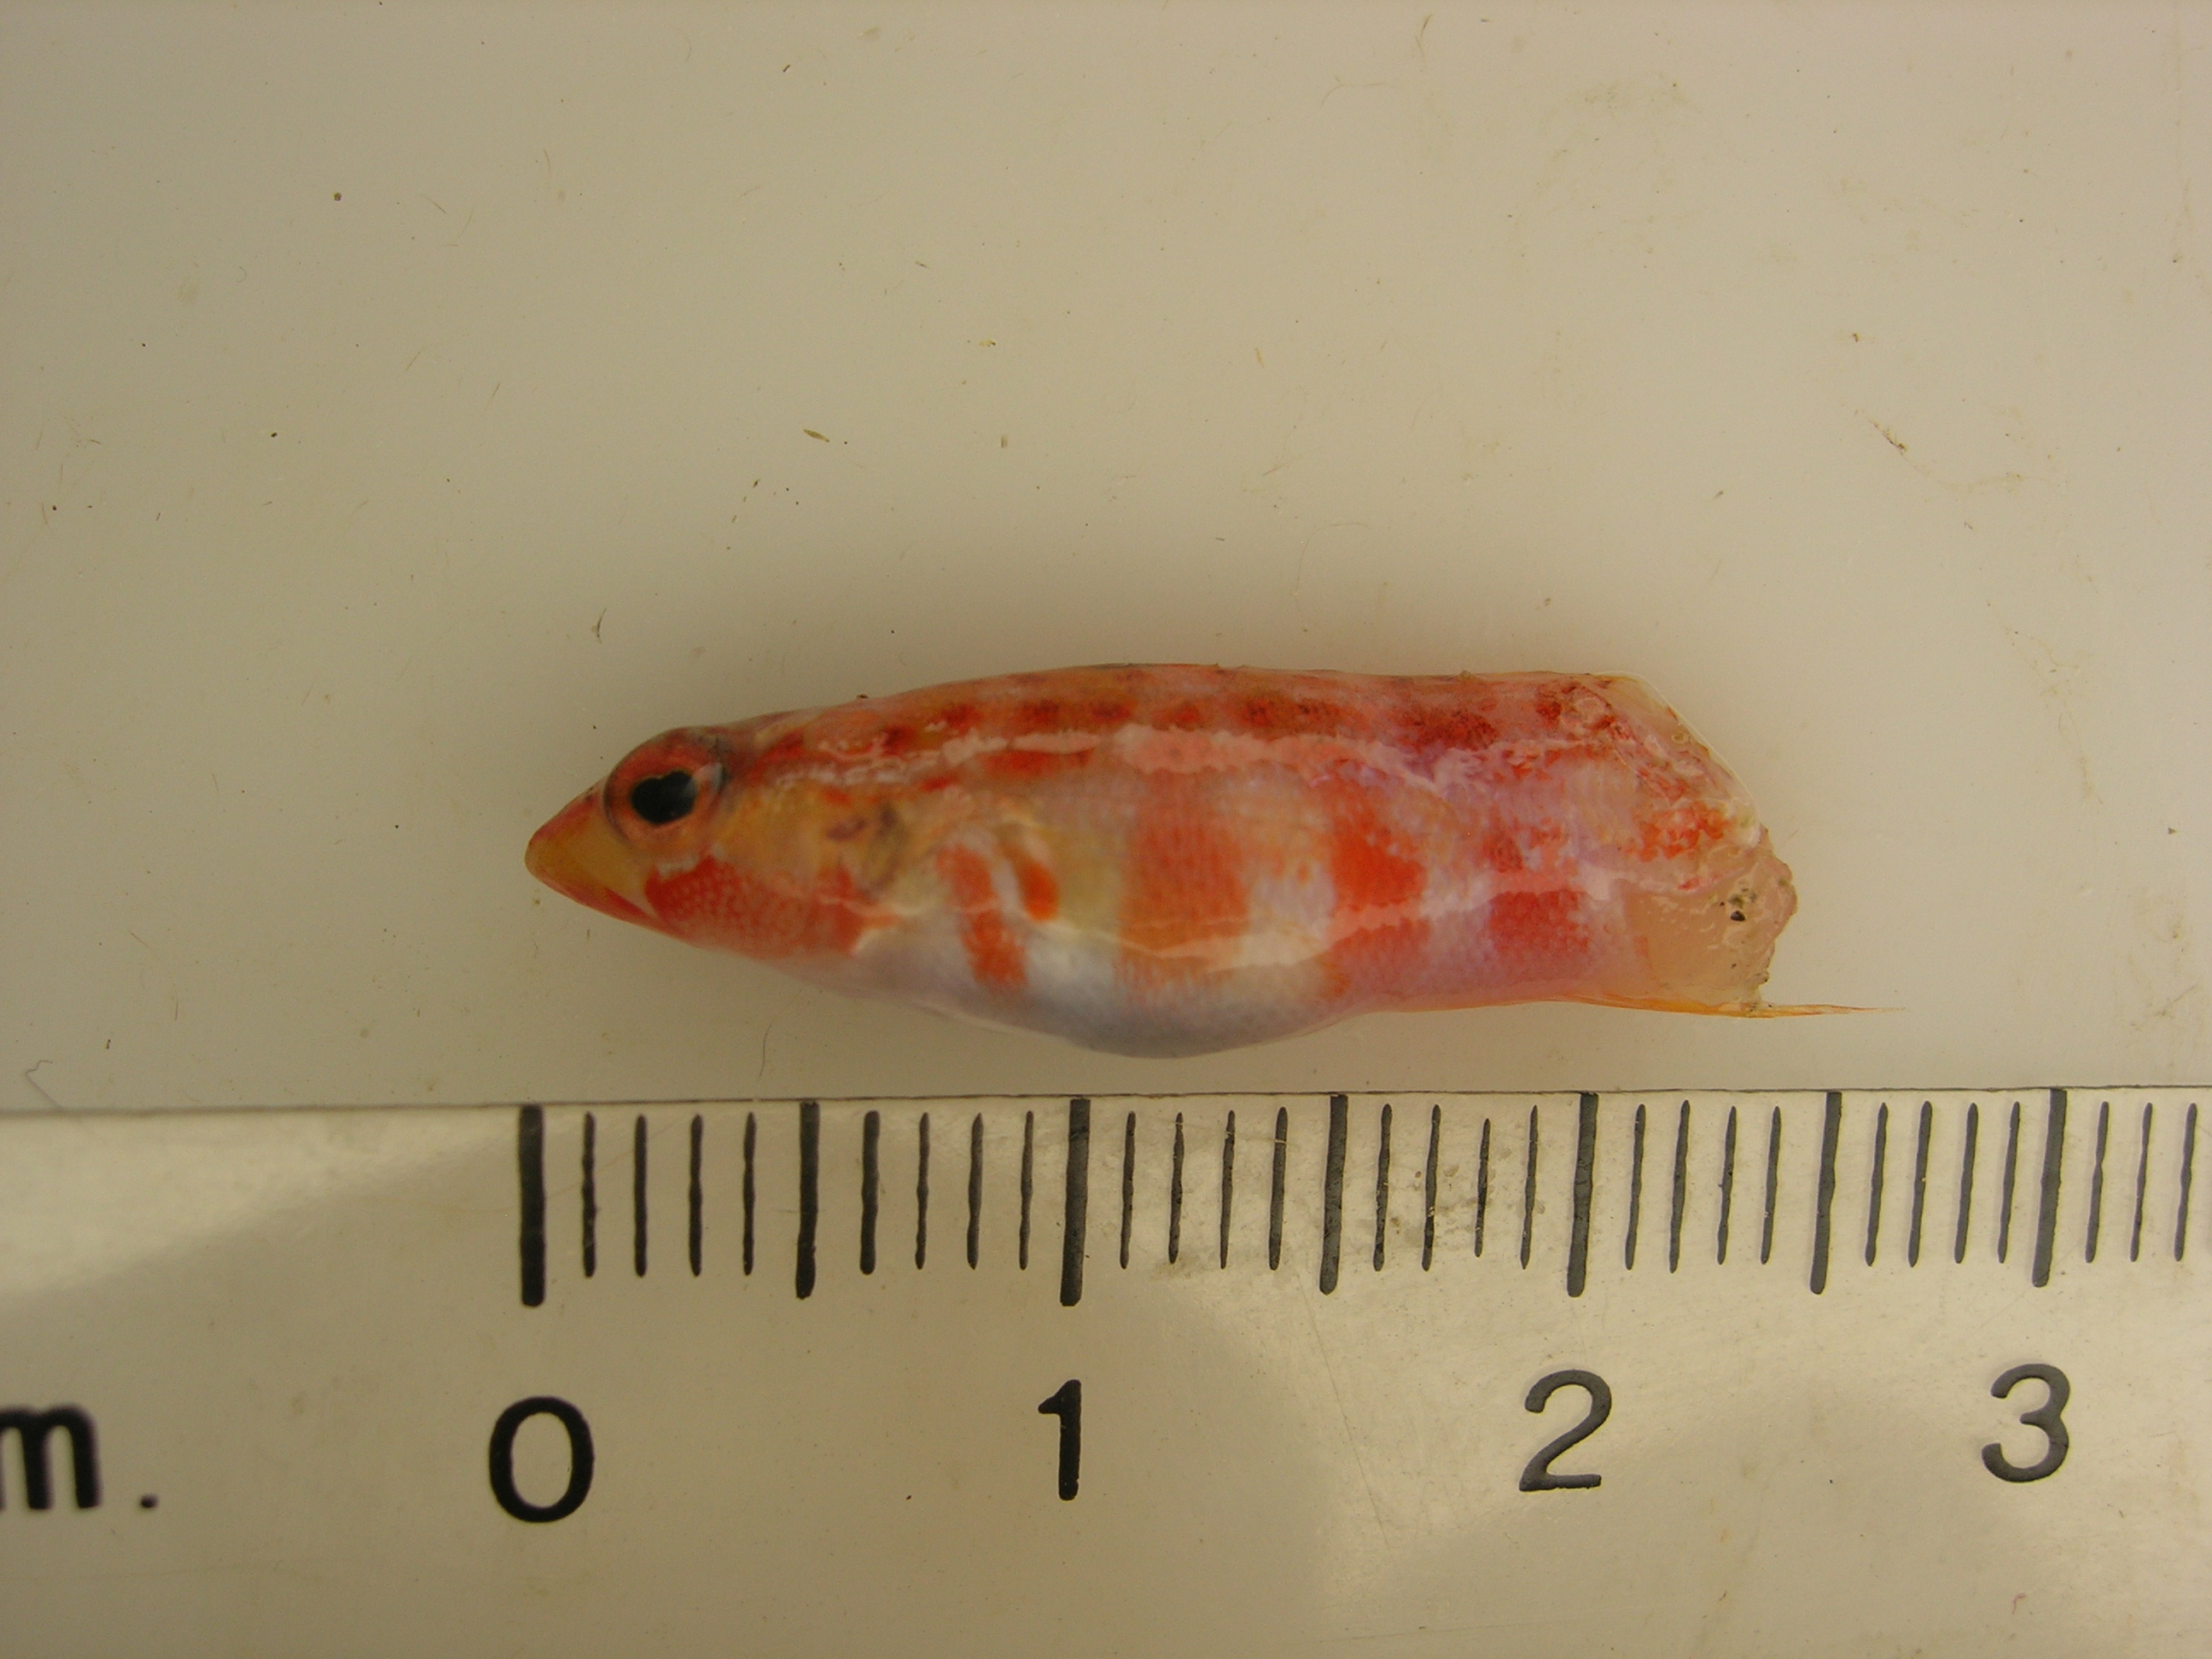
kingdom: Animalia
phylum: Chordata
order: Perciformes
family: Pinguipedidae
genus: Parapercis
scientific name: Parapercis schauinslandii
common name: Redspotted sandperch
